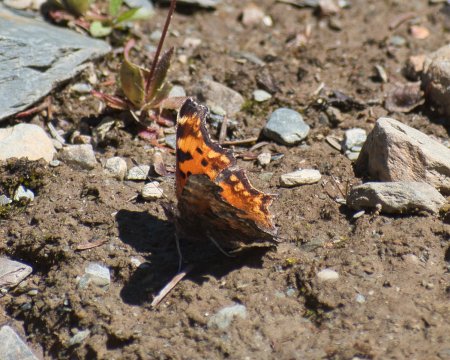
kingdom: Animalia
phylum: Arthropoda
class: Insecta
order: Lepidoptera
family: Nymphalidae
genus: Polygonia
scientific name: Polygonia gracilis
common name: Hoary Comma
